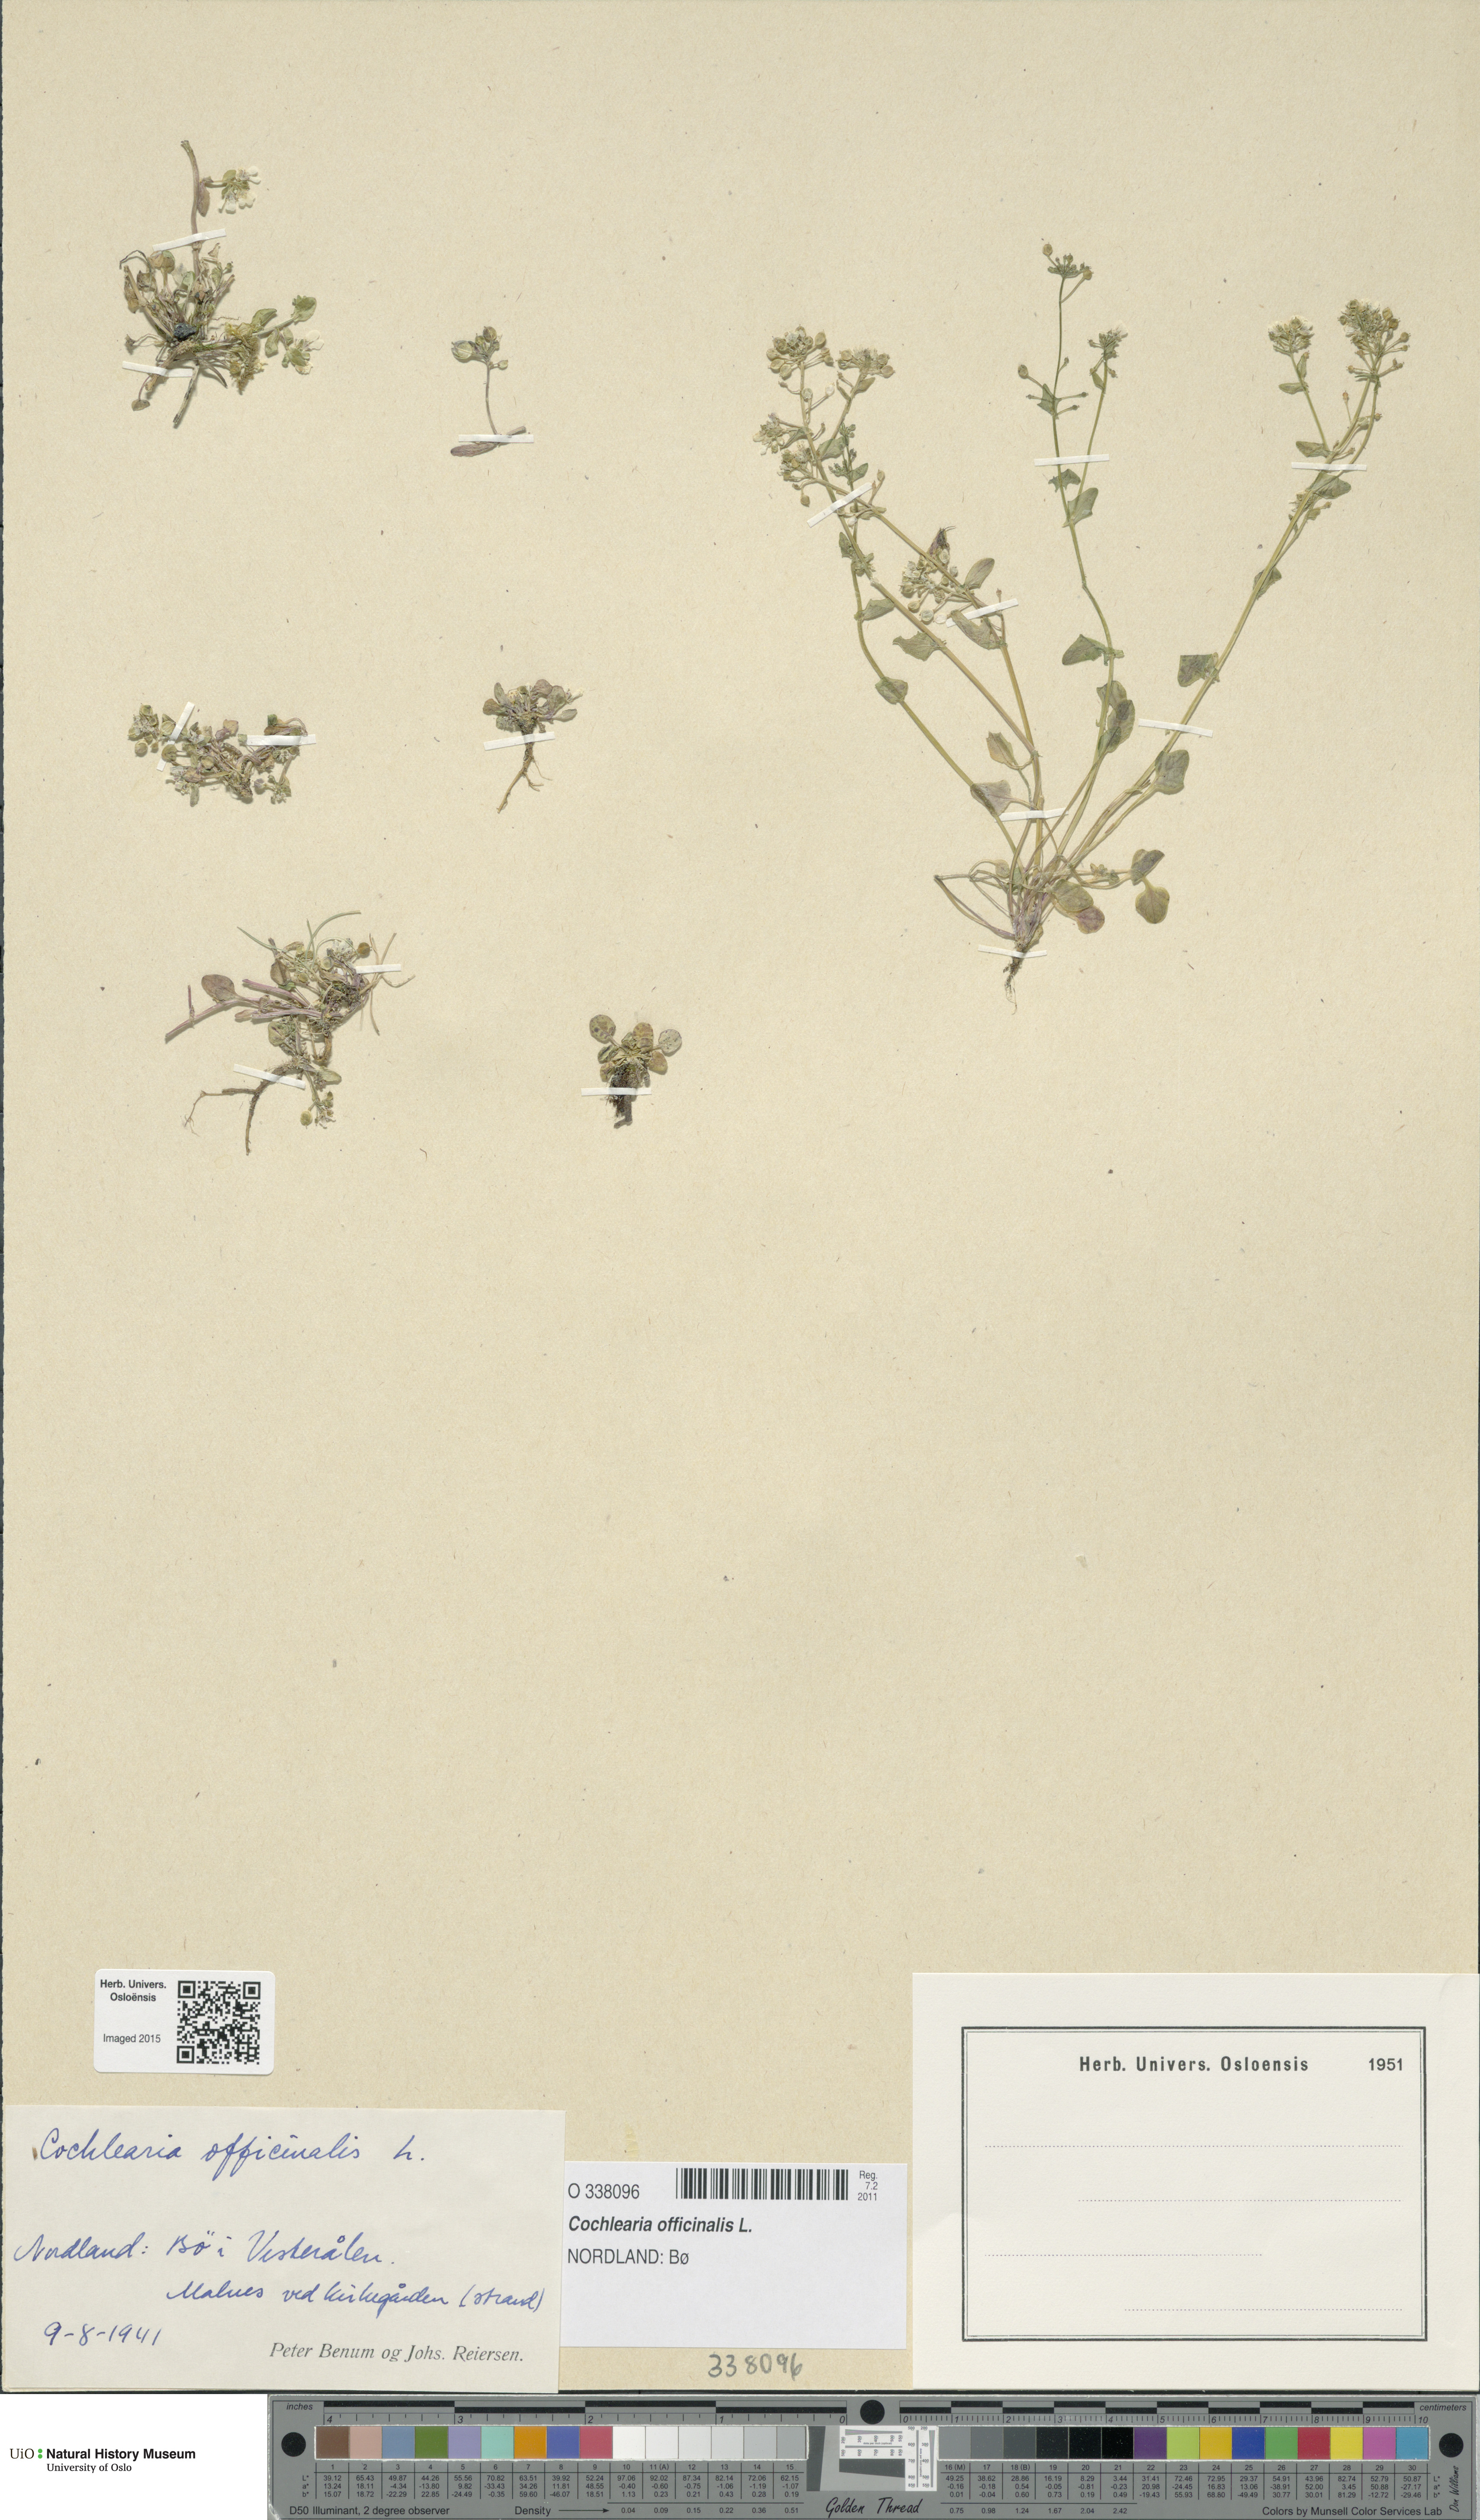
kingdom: Plantae
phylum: Tracheophyta
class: Magnoliopsida
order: Brassicales
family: Brassicaceae
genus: Cochlearia
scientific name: Cochlearia officinalis
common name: Scurvy-grass
